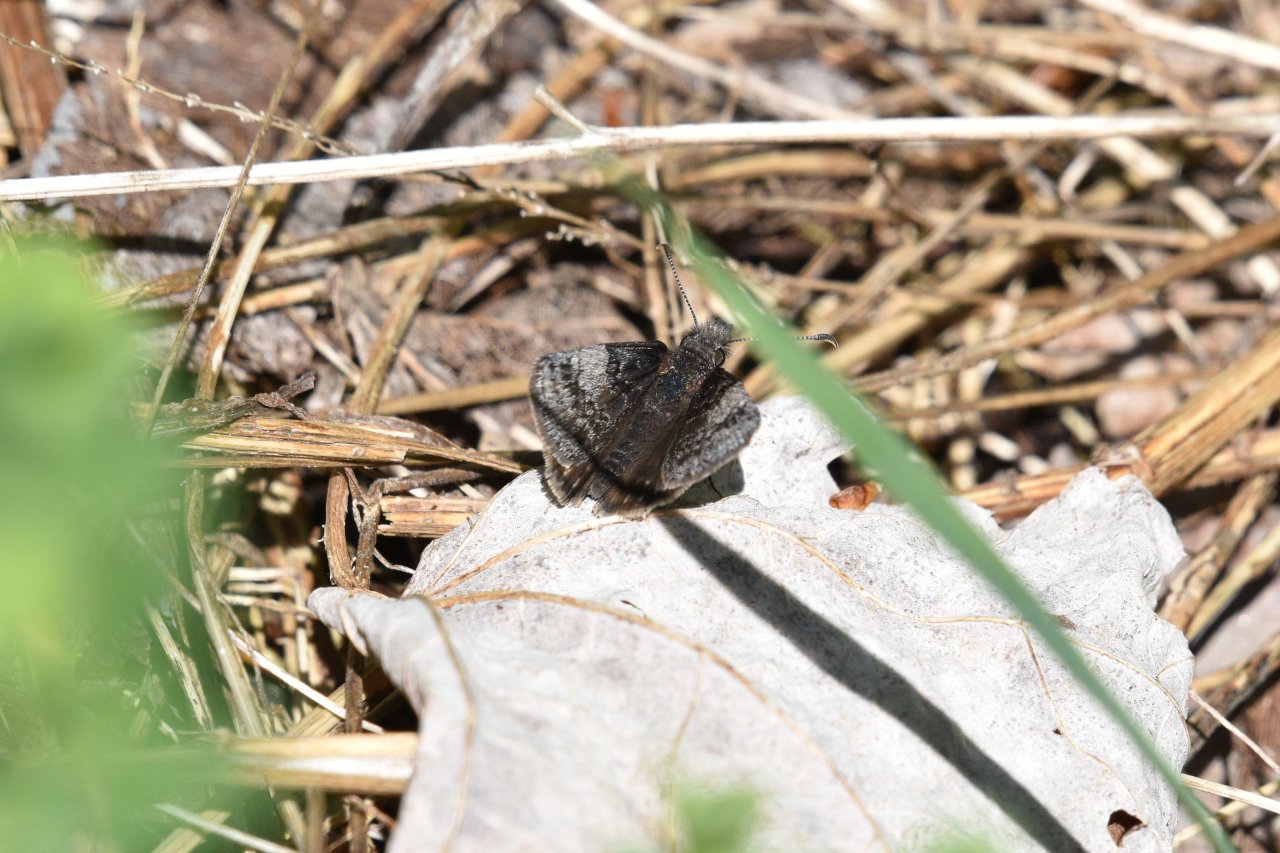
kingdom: Animalia
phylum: Arthropoda
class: Insecta
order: Lepidoptera
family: Hesperiidae
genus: Erynnis
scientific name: Erynnis icelus
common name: Dreamy Duskywing
